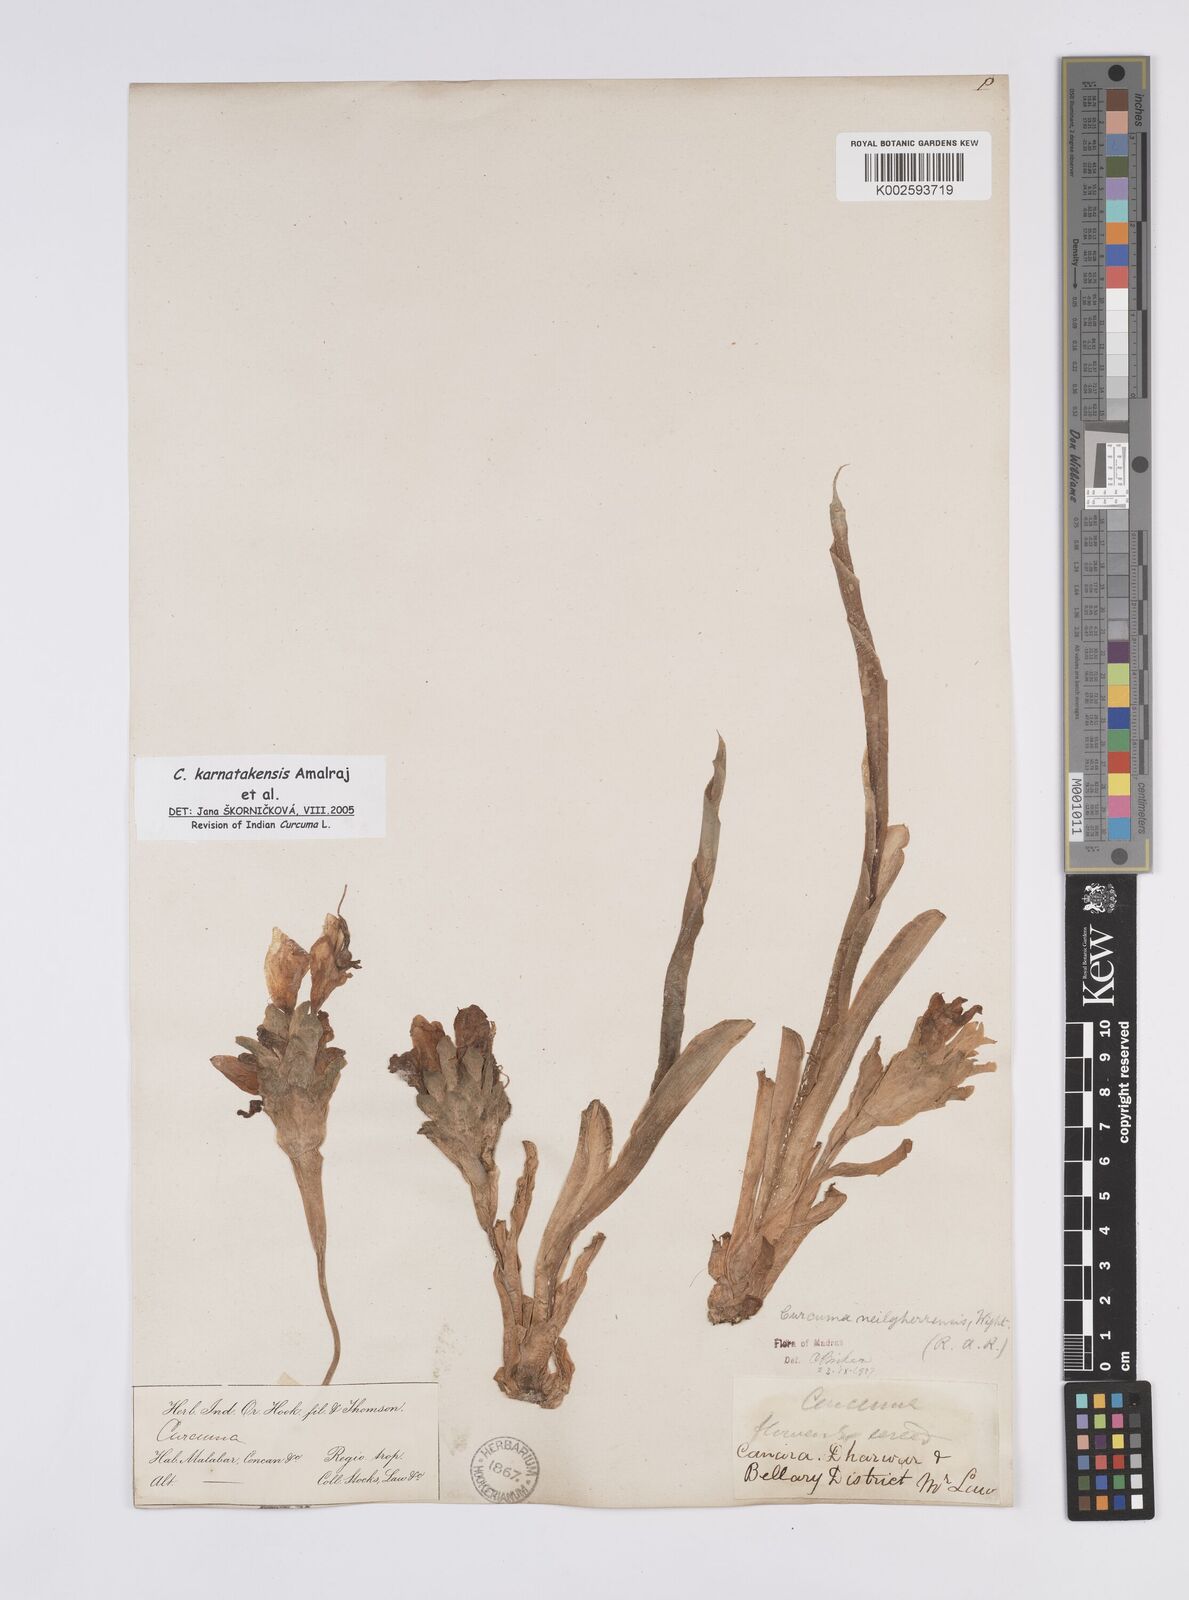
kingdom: Plantae
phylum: Tracheophyta
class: Liliopsida
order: Zingiberales
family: Zingiberaceae
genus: Curcuma
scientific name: Curcuma karnatakensis
